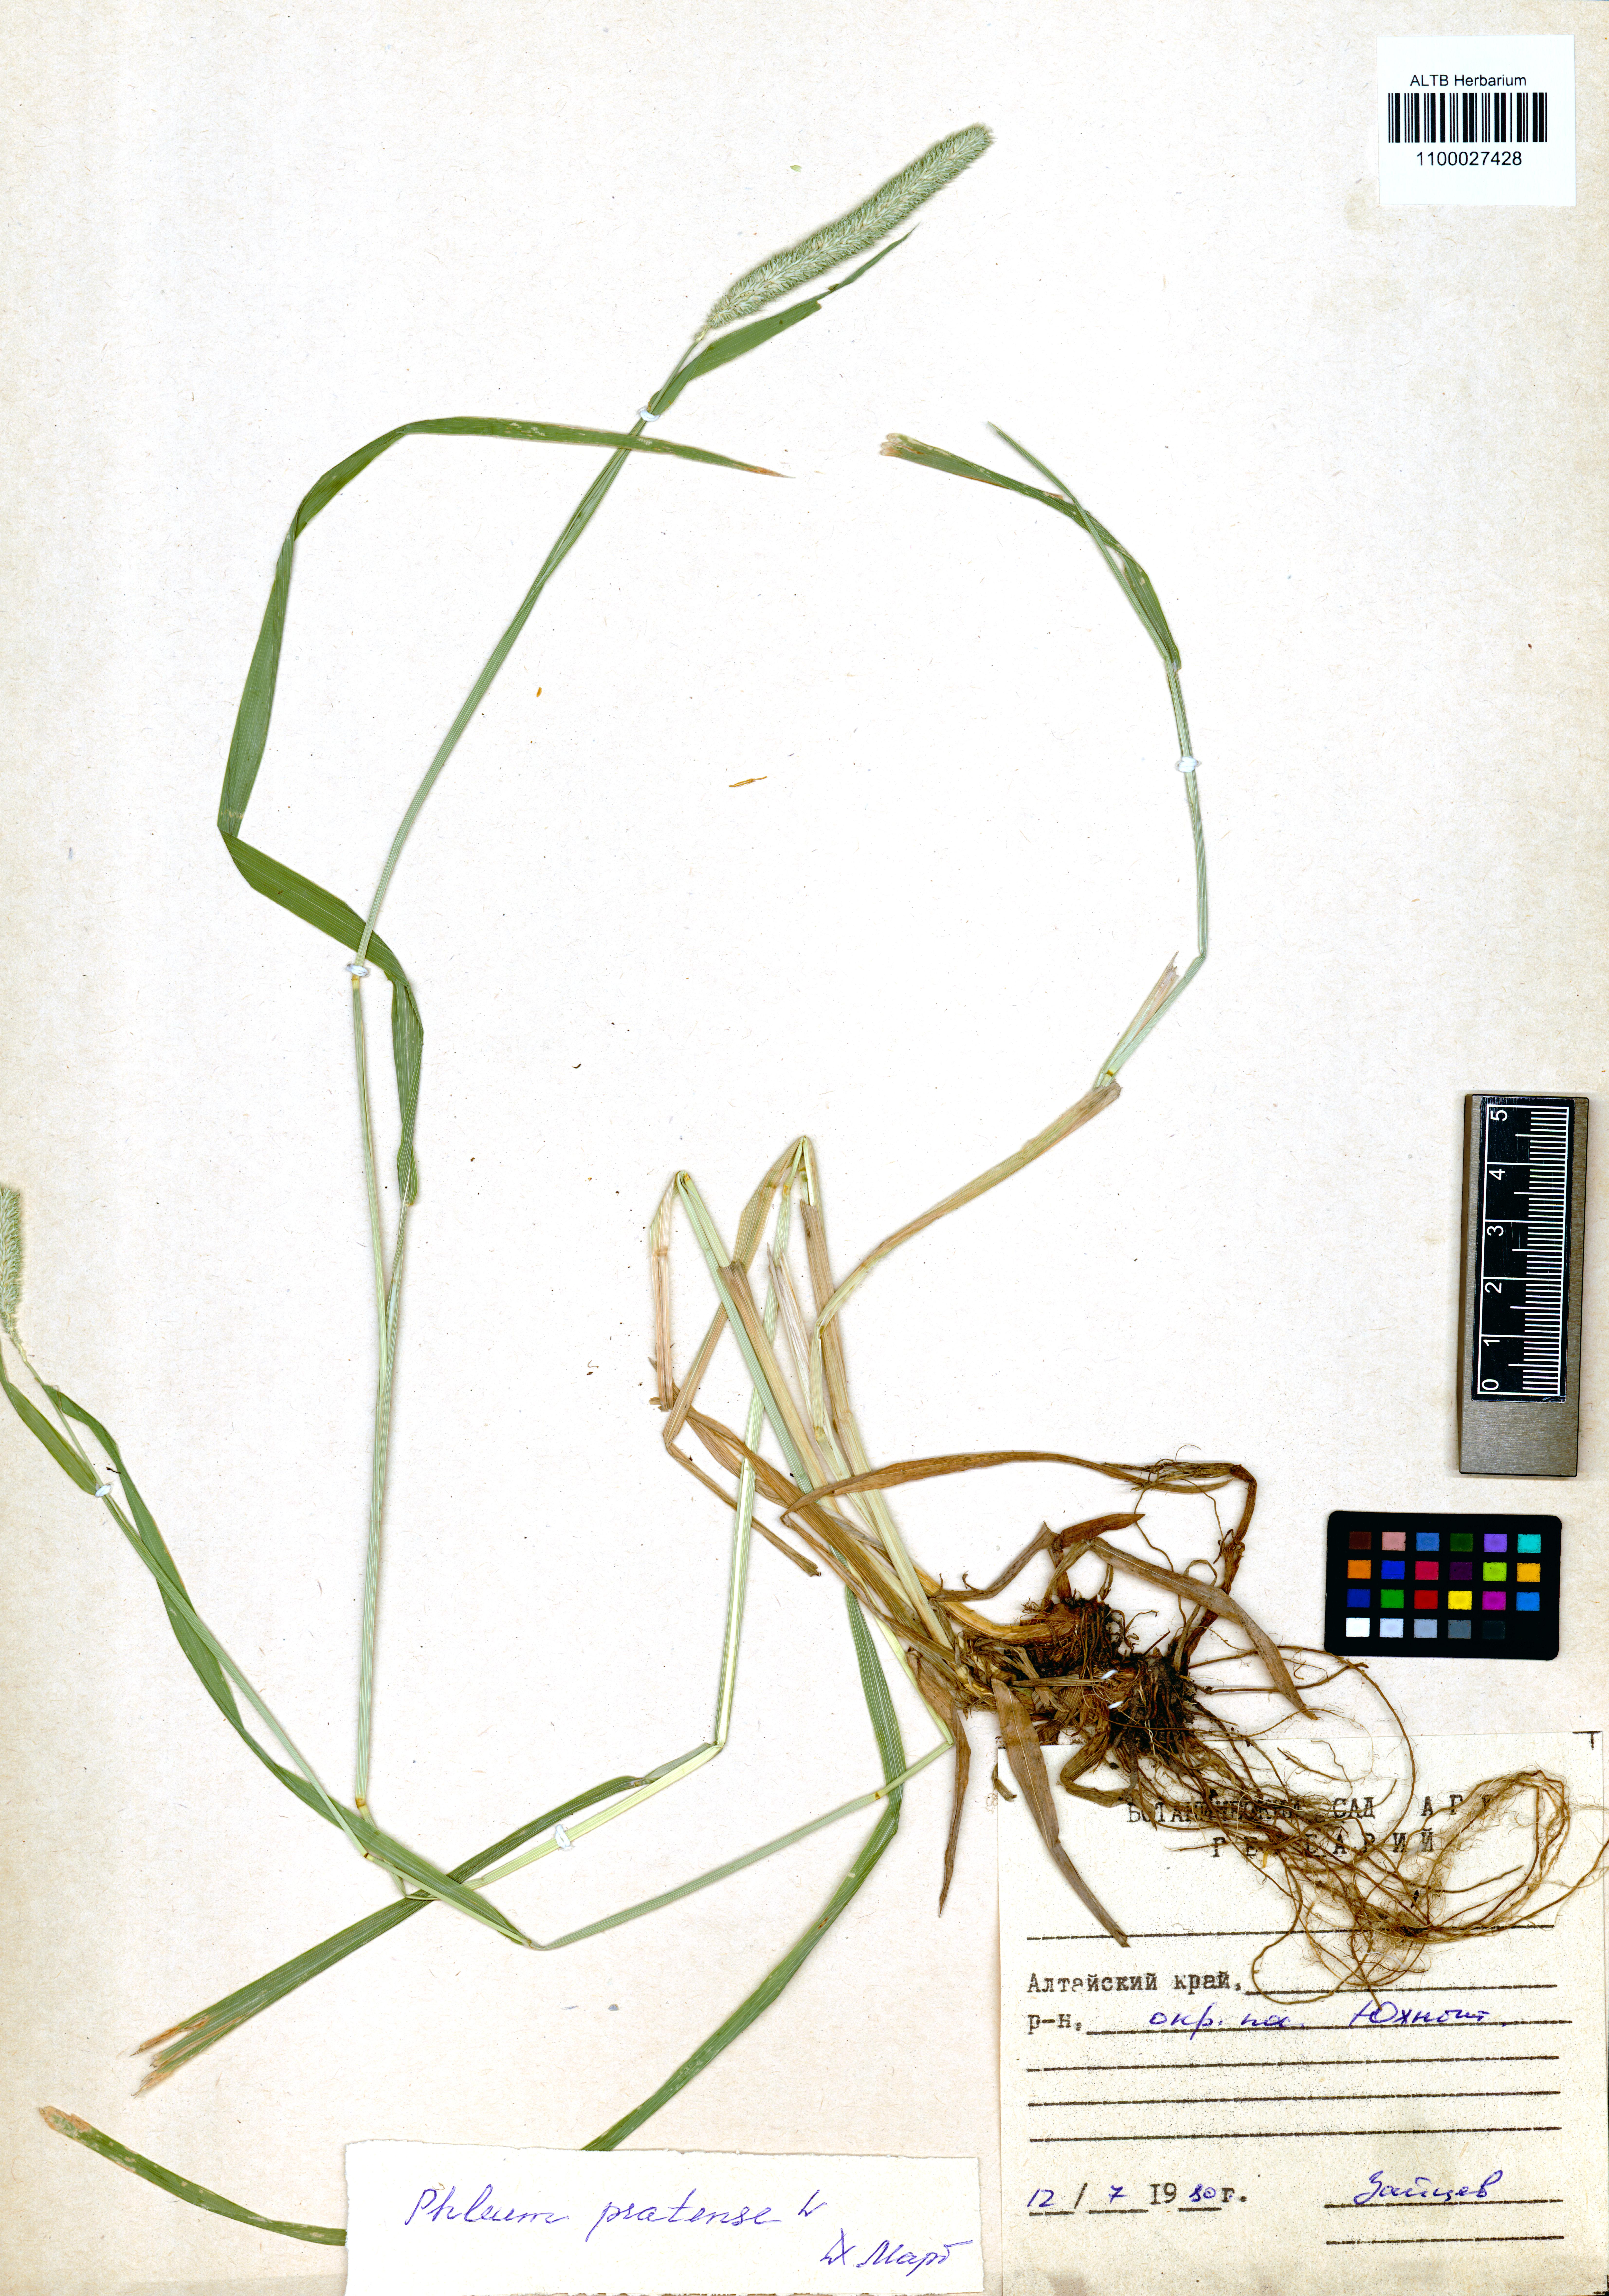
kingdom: Plantae
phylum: Tracheophyta
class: Liliopsida
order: Poales
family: Poaceae
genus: Phleum
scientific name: Phleum pratense
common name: Timothy grass
